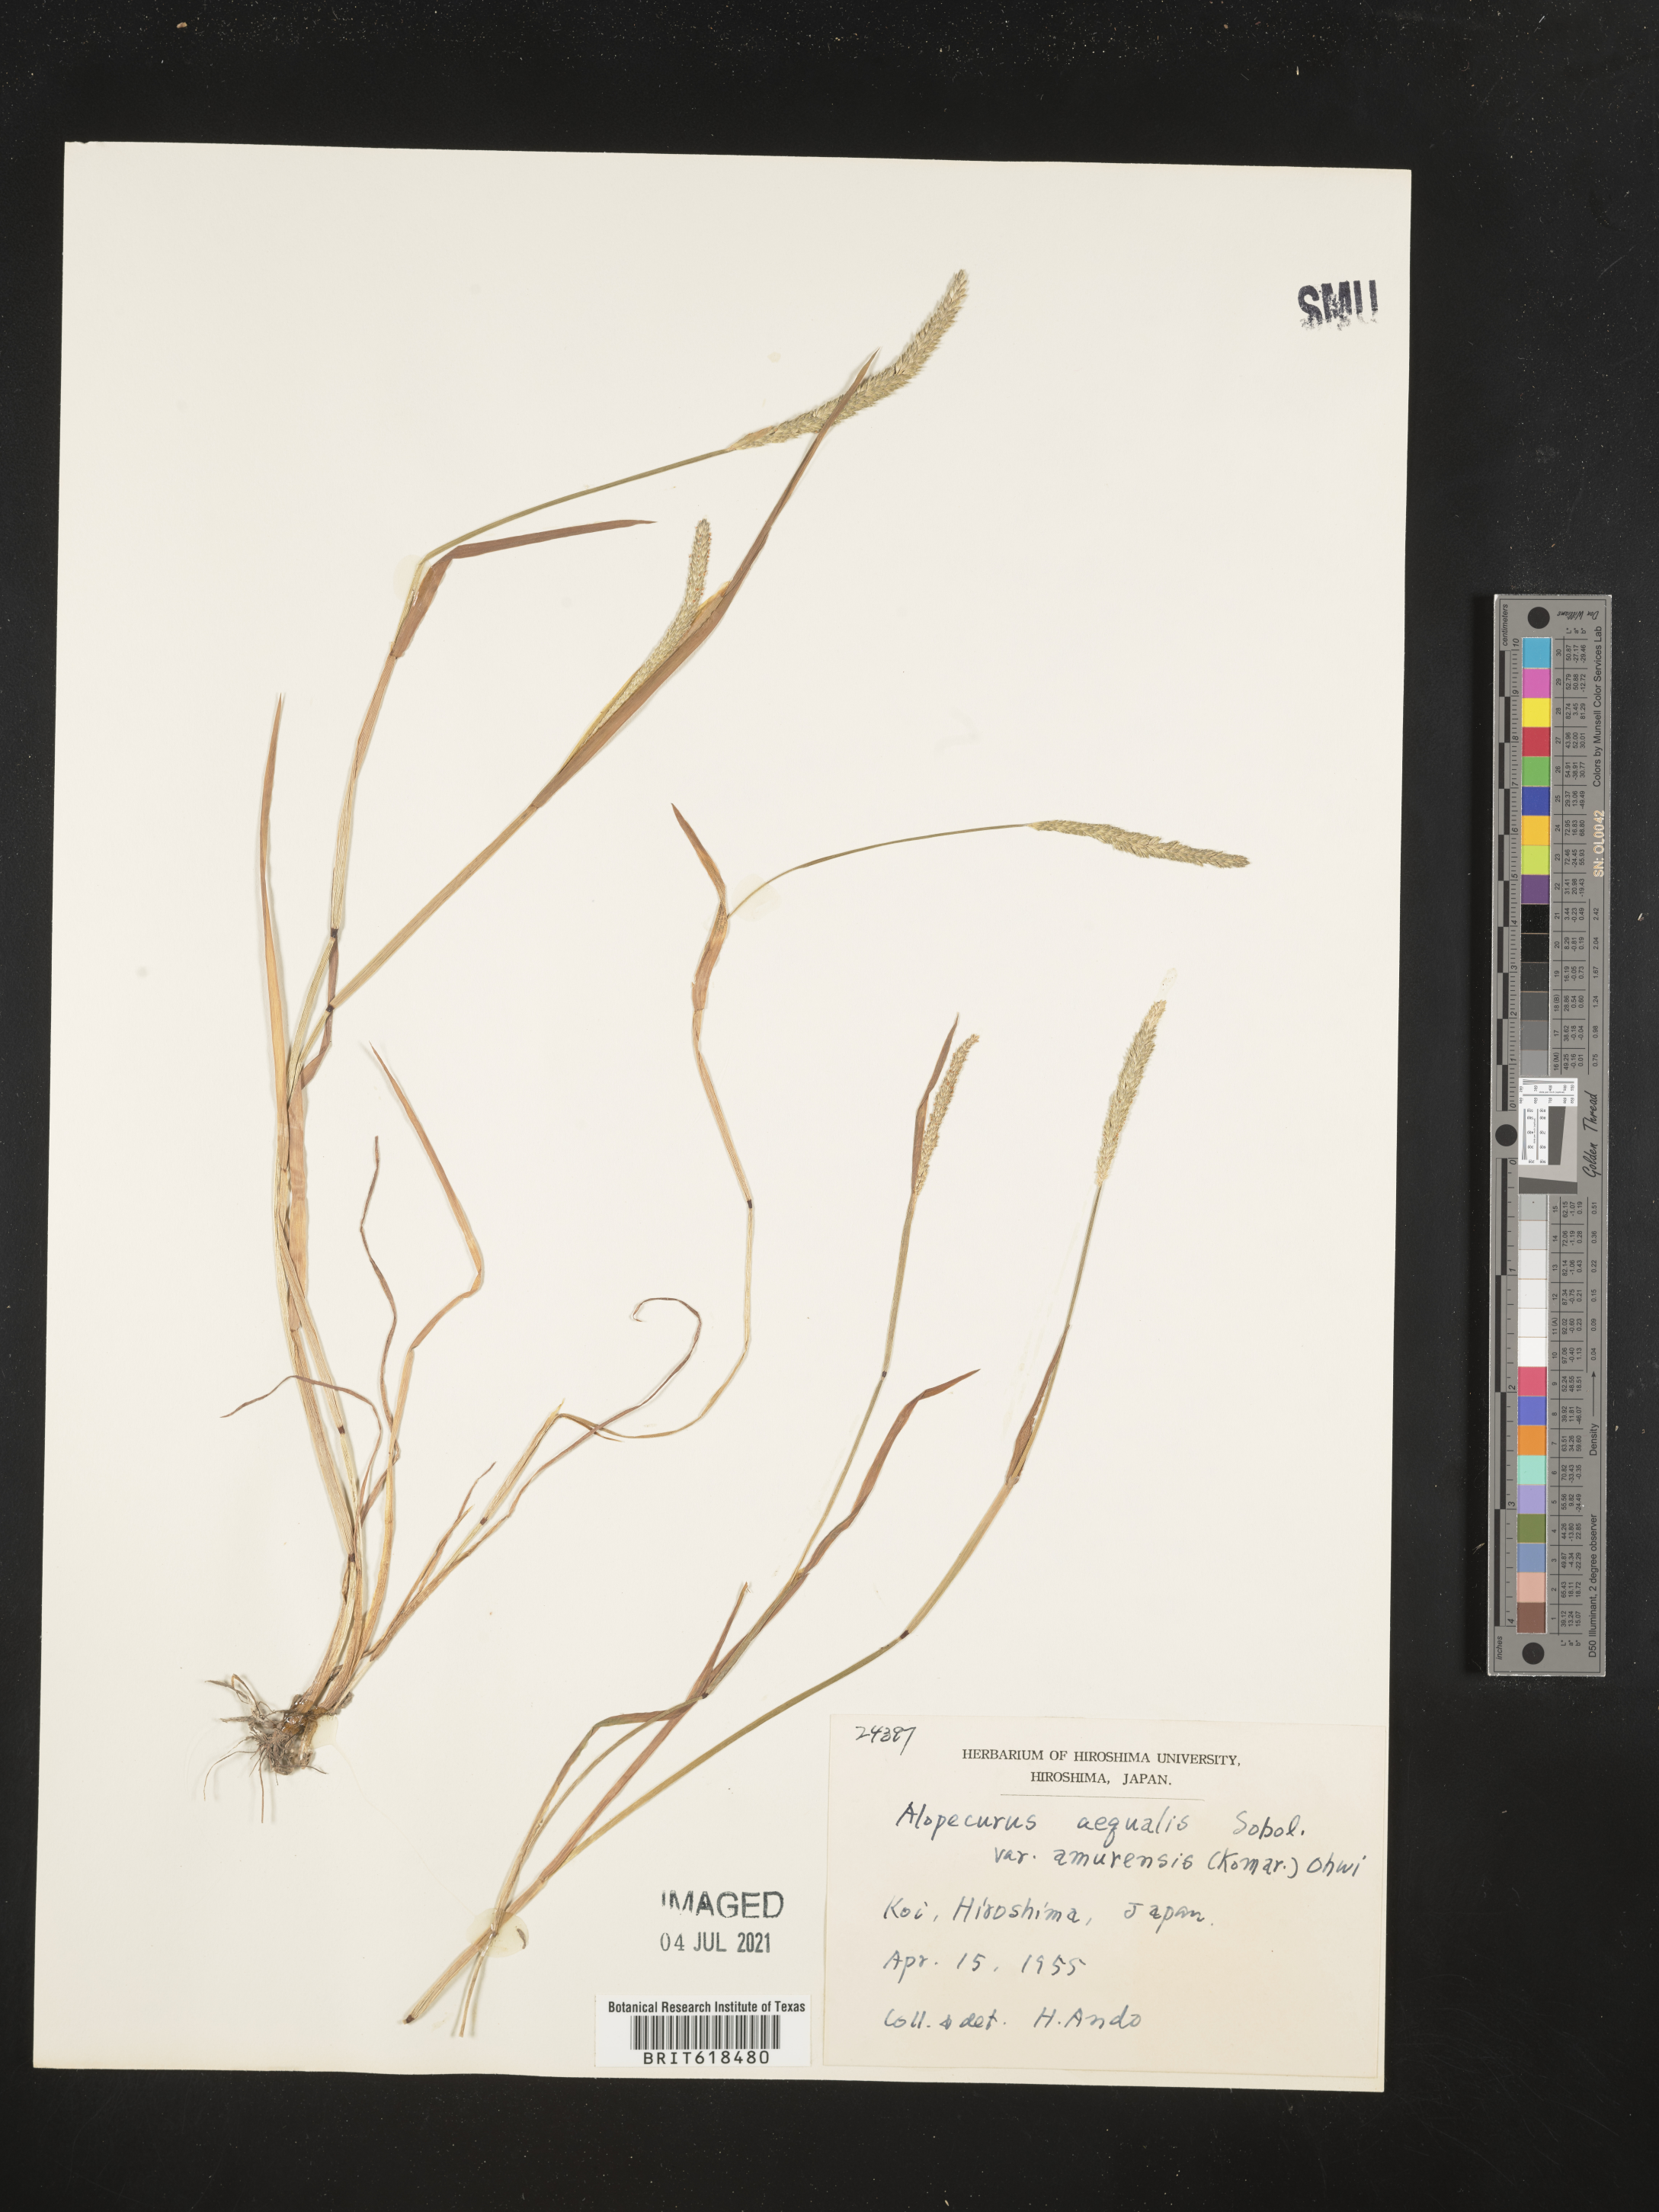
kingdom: Plantae
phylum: Tracheophyta
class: Liliopsida
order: Poales
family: Poaceae
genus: Alopecurus
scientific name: Alopecurus aequalis
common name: Orange foxtail
